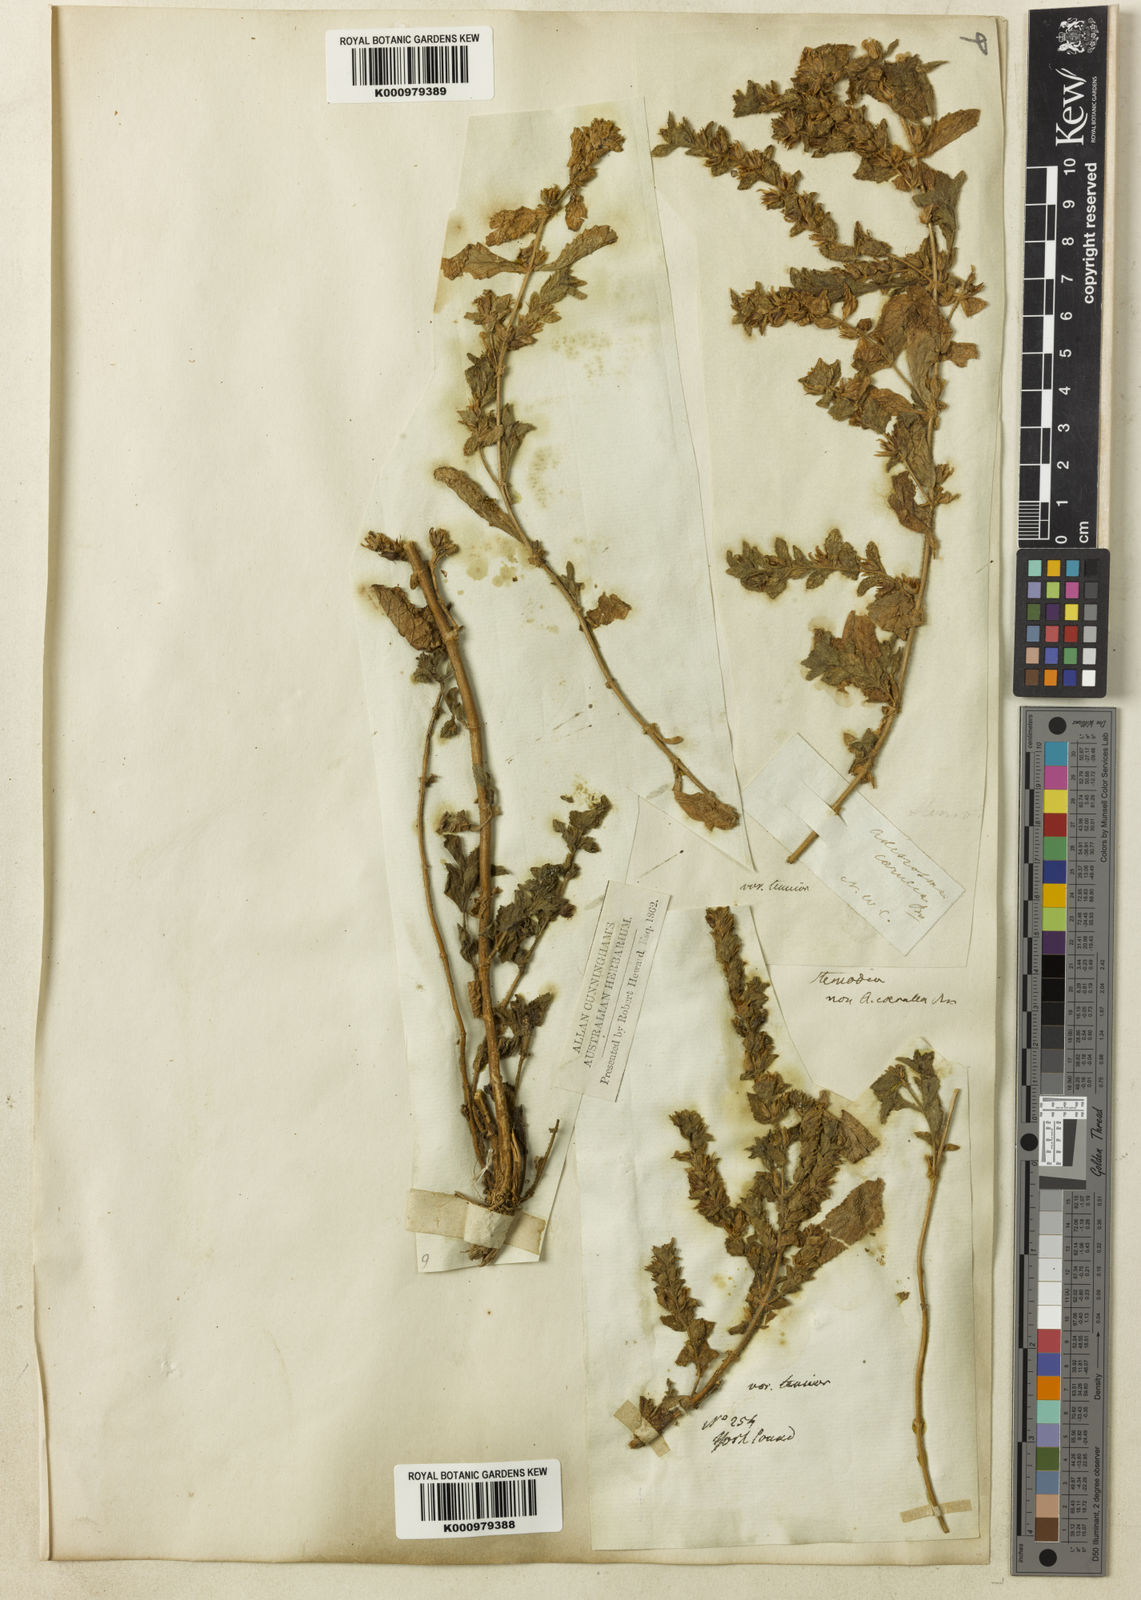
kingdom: Plantae
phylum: Tracheophyta
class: Magnoliopsida
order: Lamiales
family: Plantaginaceae
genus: Stemodia
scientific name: Stemodia lythrifolia
